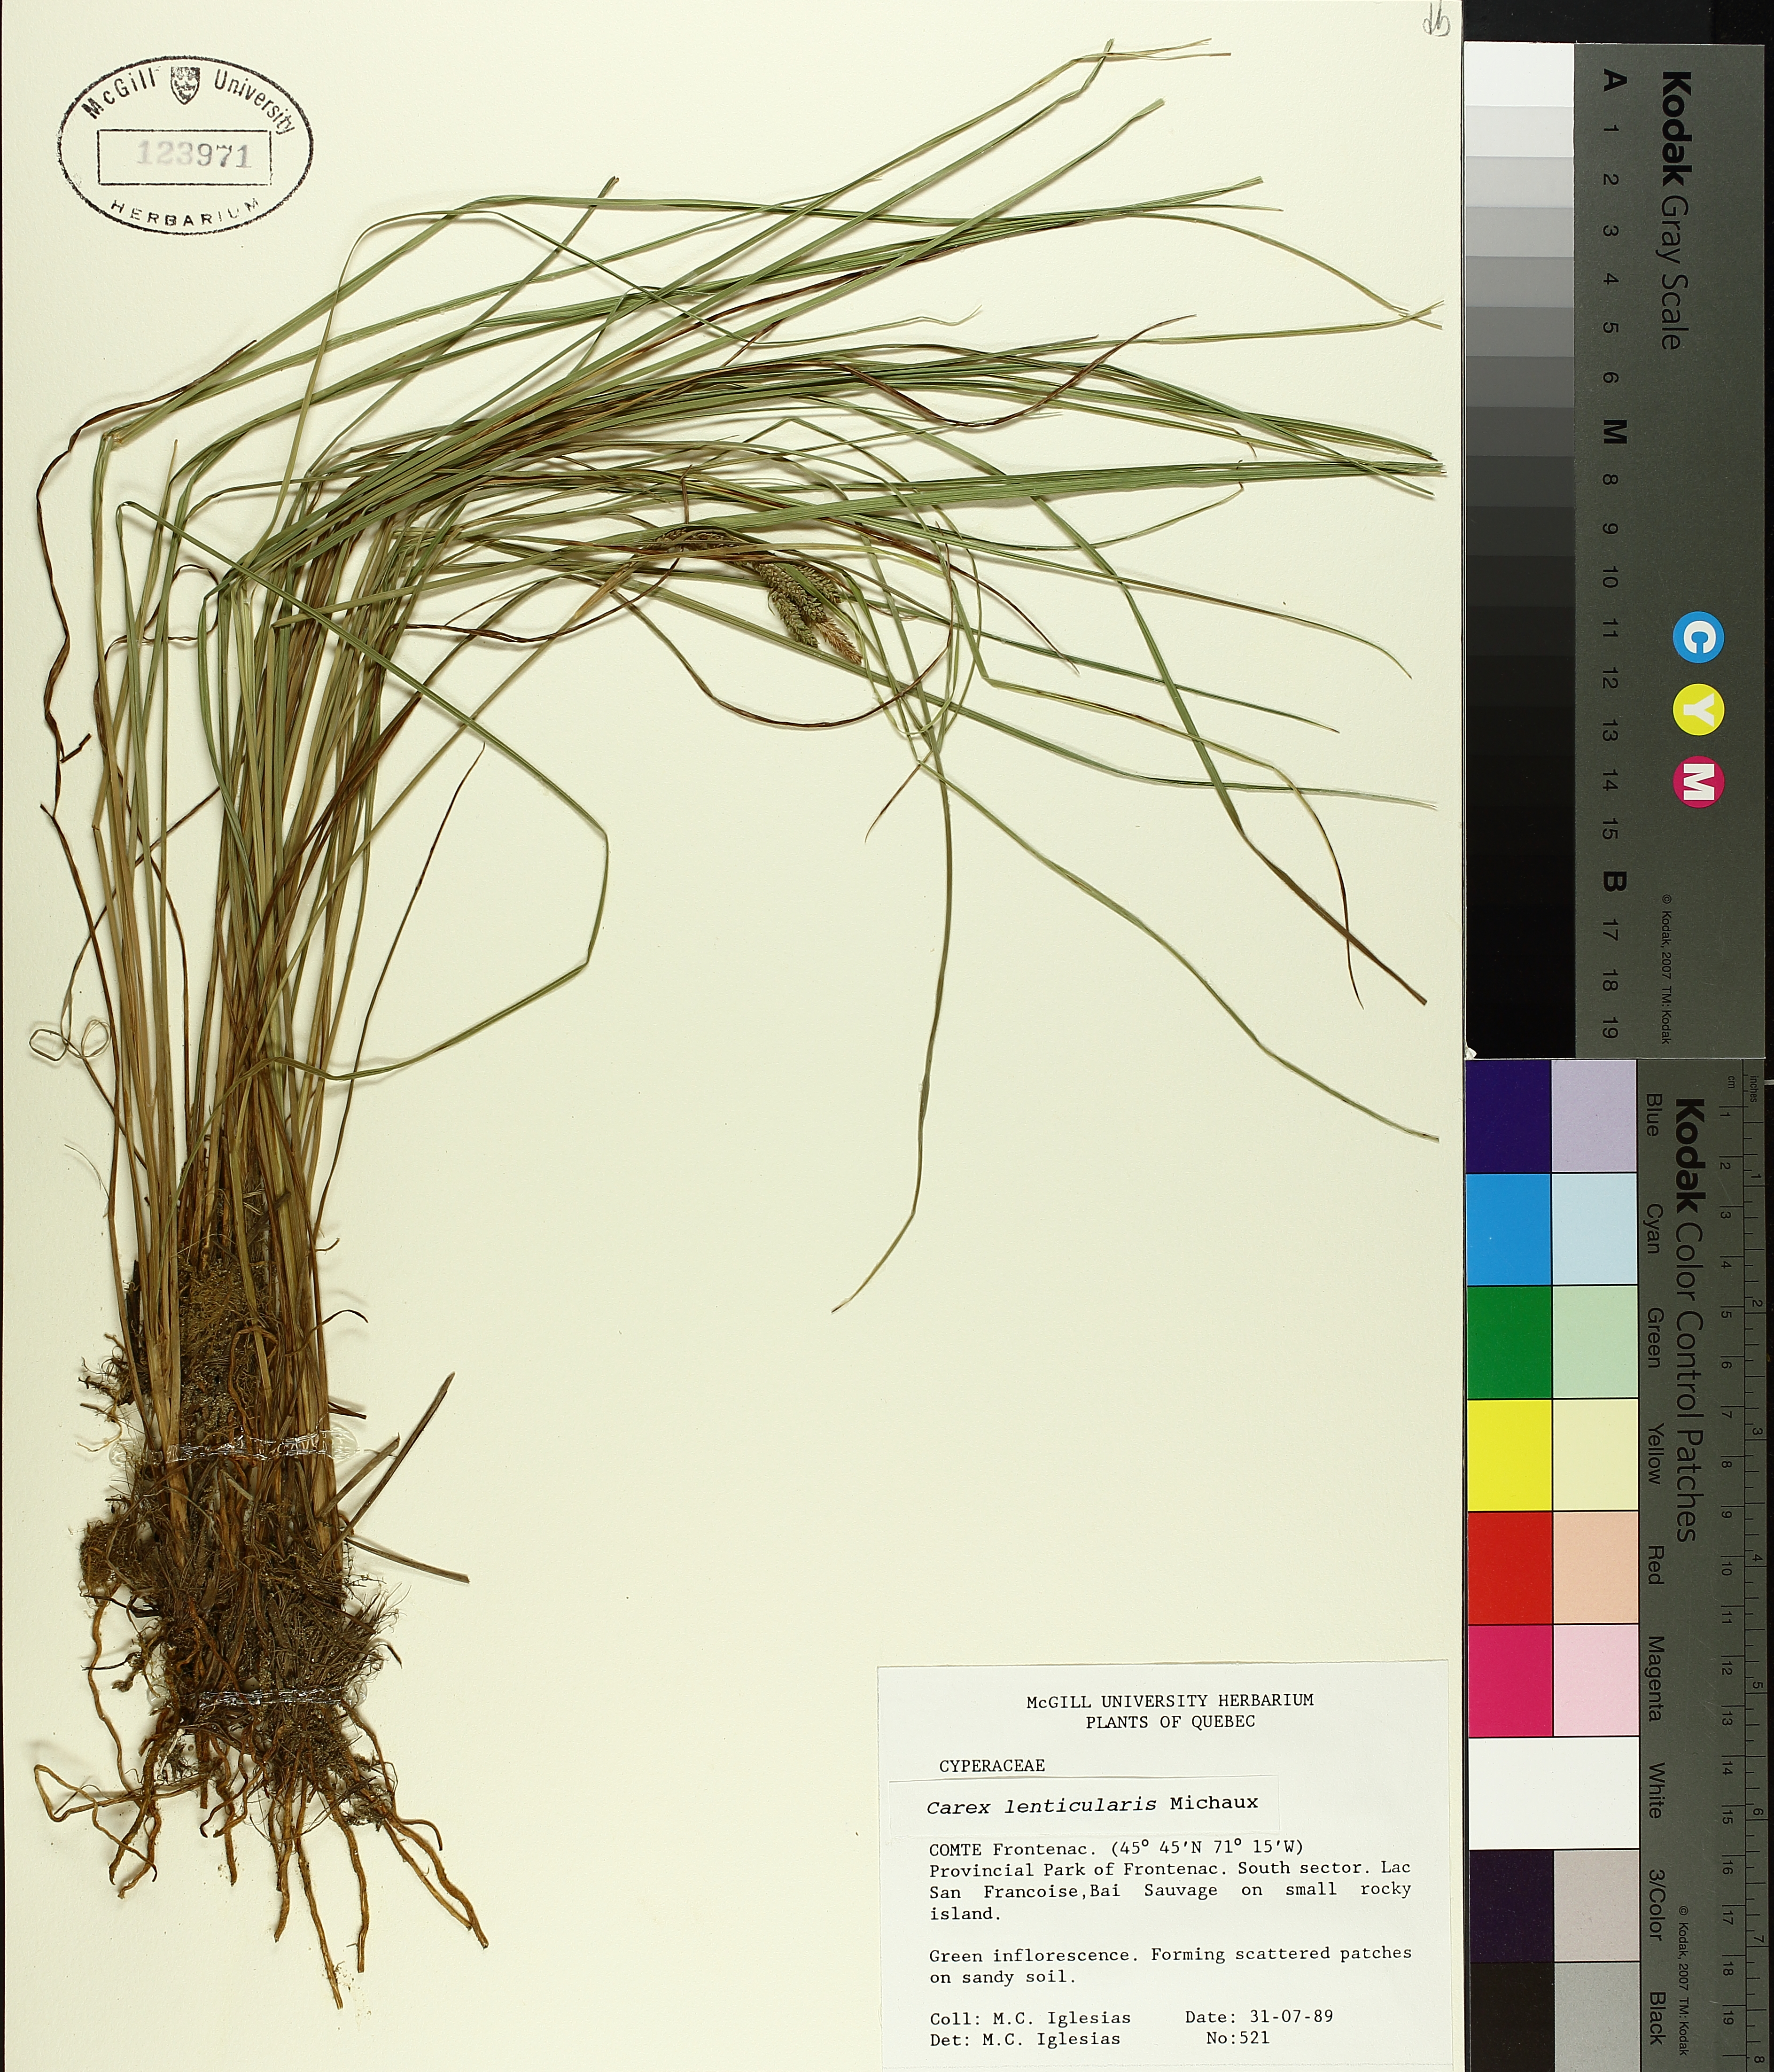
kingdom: Plantae
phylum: Tracheophyta
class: Liliopsida
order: Poales
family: Cyperaceae
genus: Carex
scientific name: Carex lenticularis
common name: Lakeshore sedge
